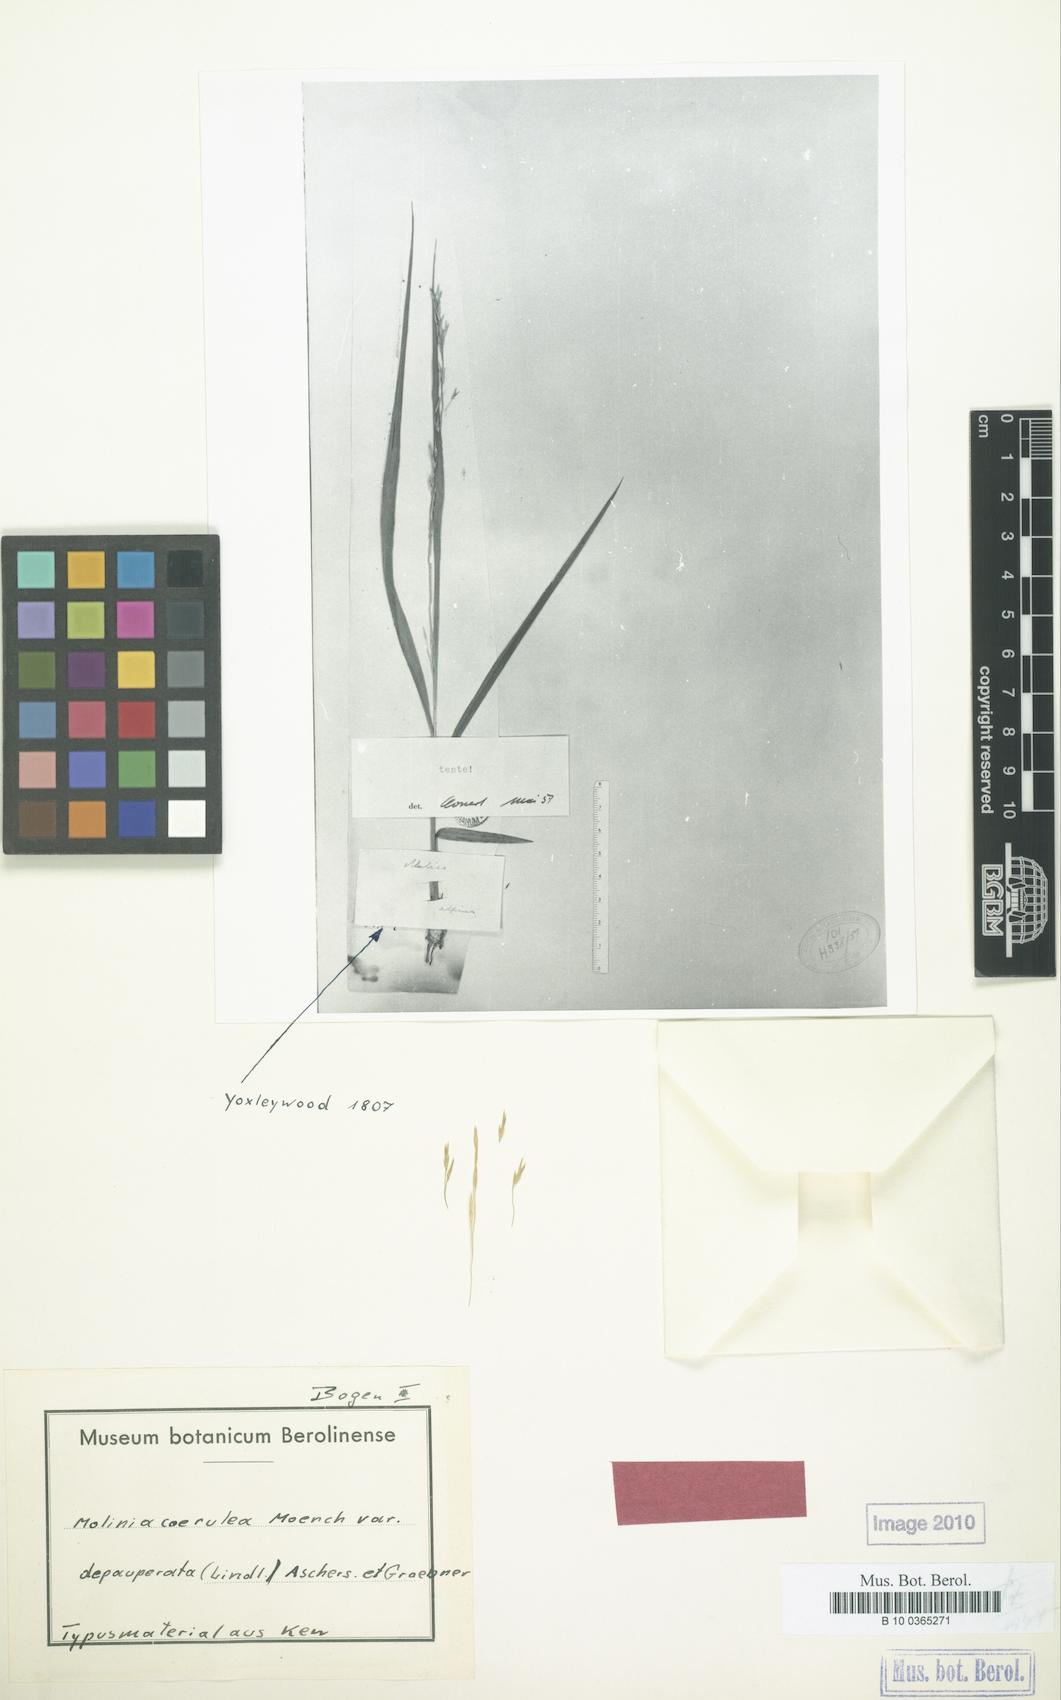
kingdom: Plantae
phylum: Tracheophyta
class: Liliopsida
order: Poales
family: Poaceae
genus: Molinia
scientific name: Molinia caerulea
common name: Purple moor-grass
